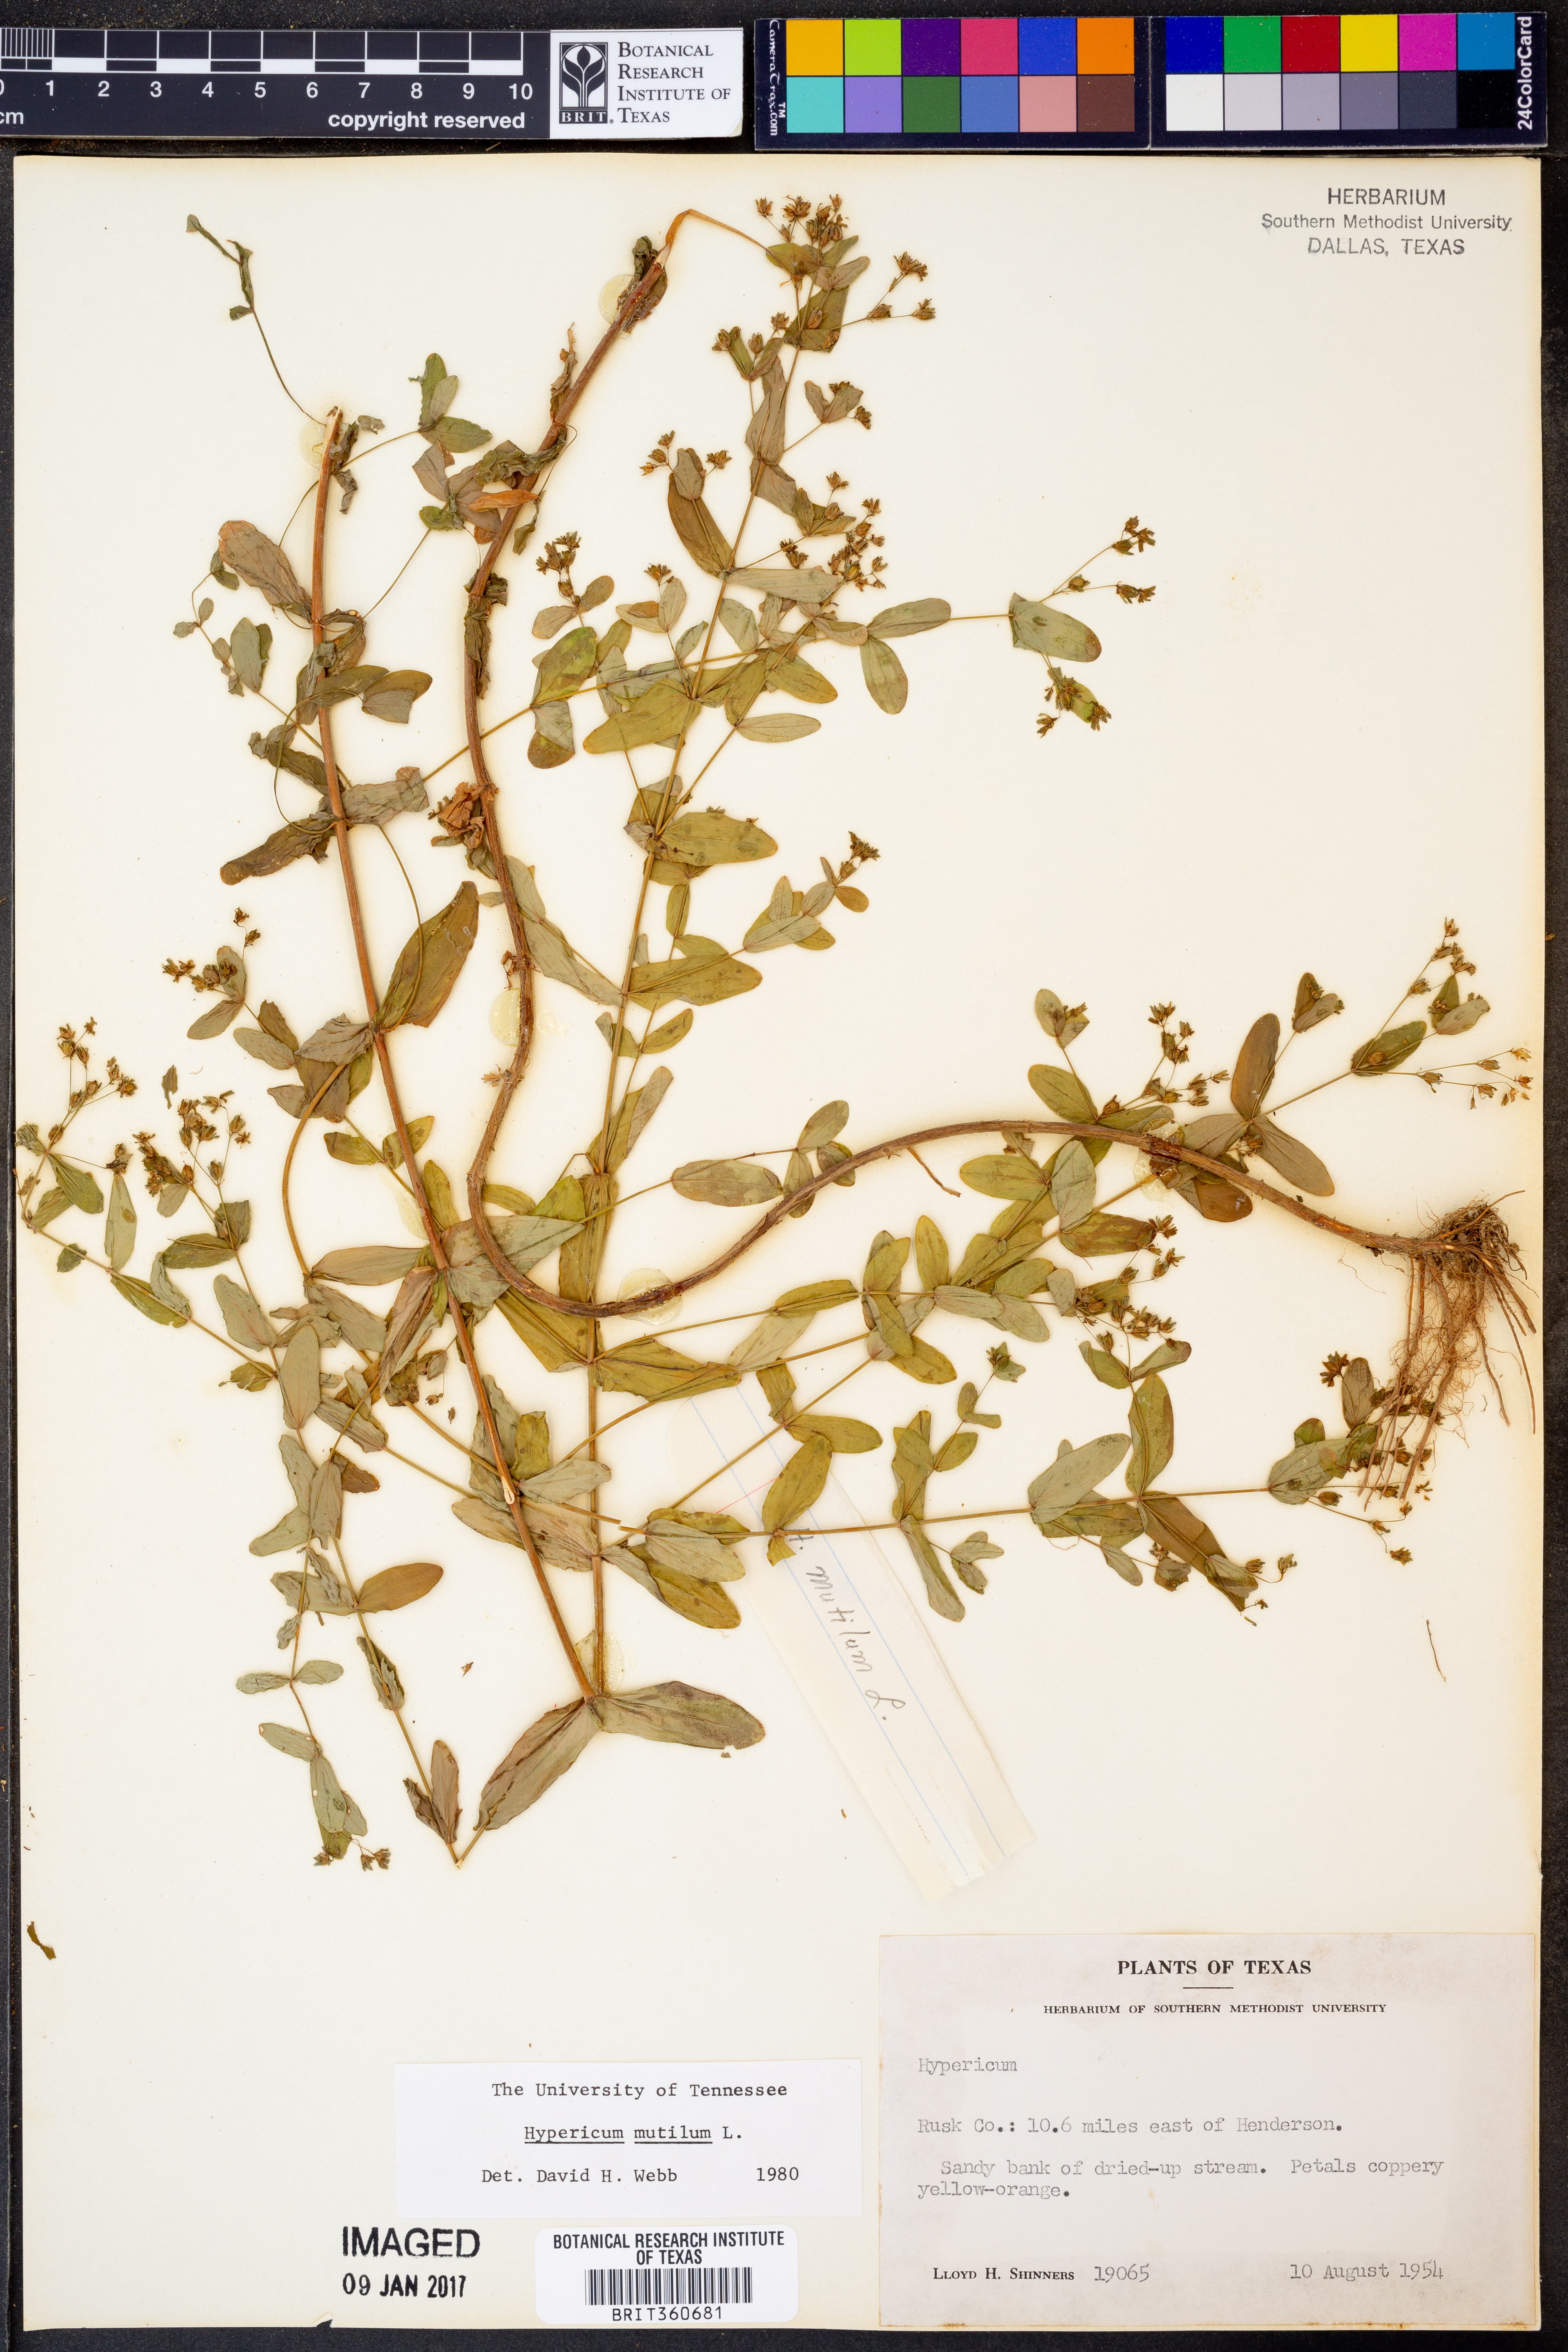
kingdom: Plantae
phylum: Tracheophyta
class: Magnoliopsida
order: Malpighiales
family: Hypericaceae
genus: Hypericum
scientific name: Hypericum mutilum
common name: Dwarf st. john's-wort
